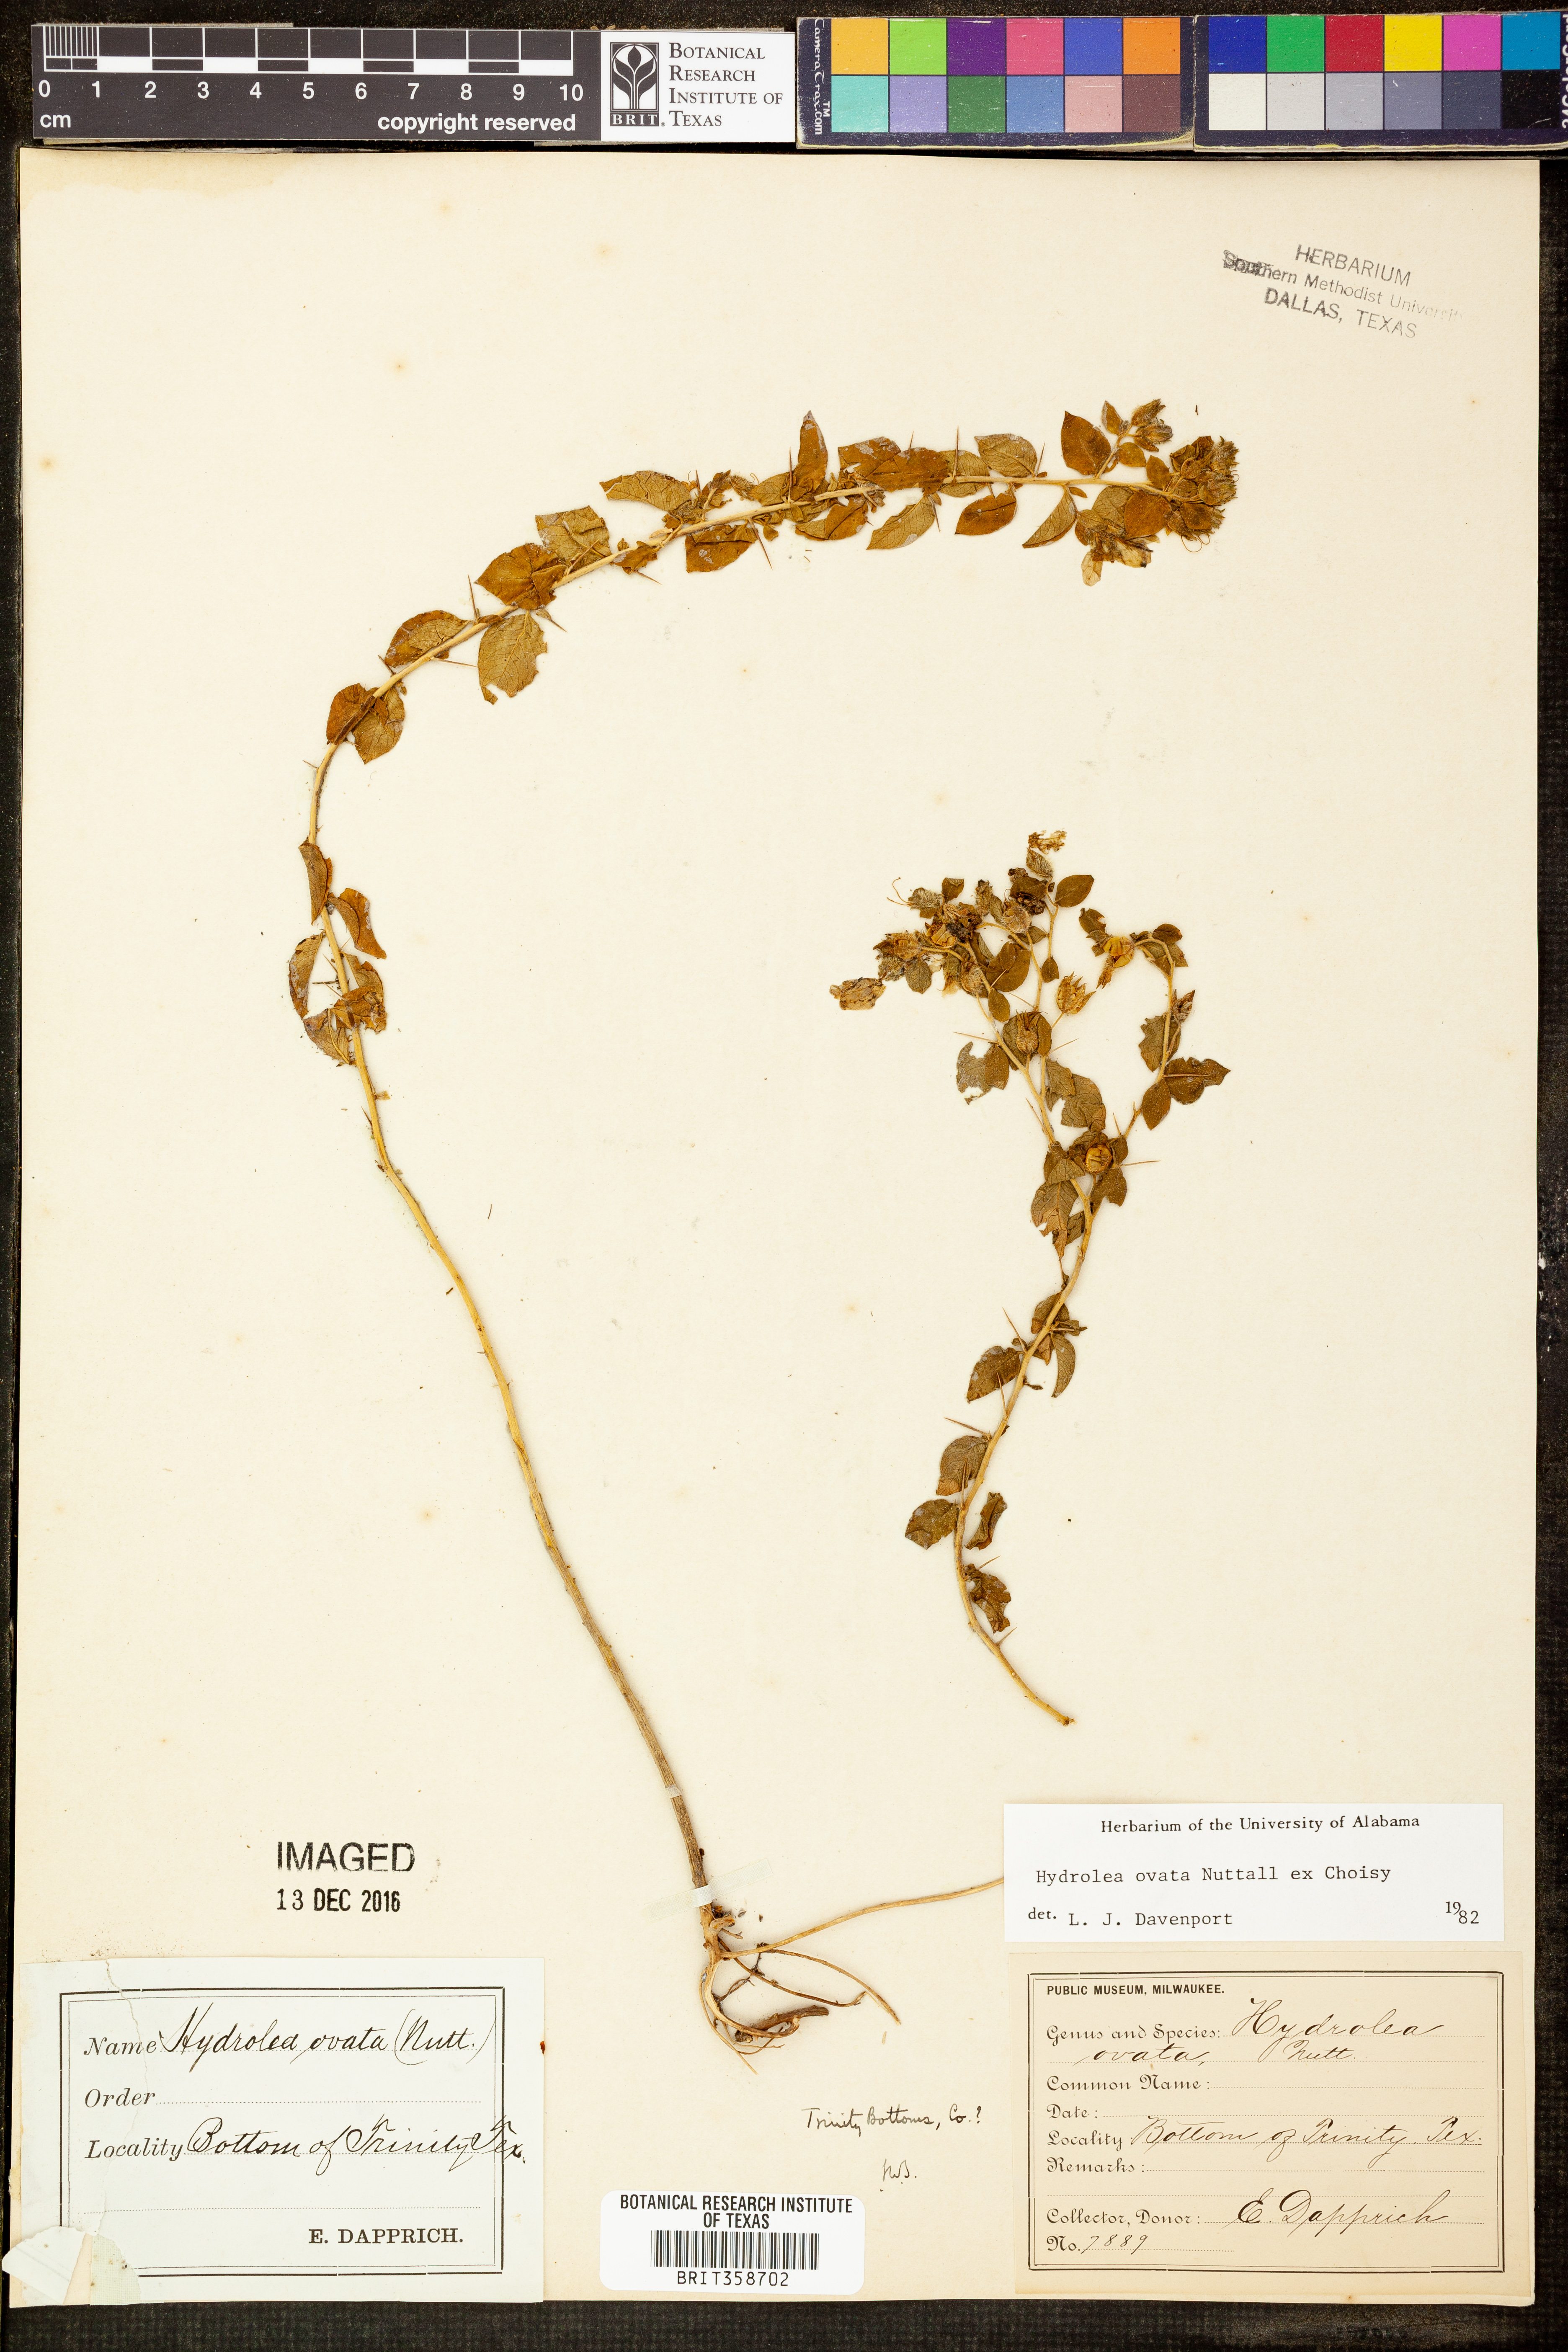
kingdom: Plantae
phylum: Tracheophyta
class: Magnoliopsida
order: Solanales
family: Hydroleaceae
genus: Hydrolea
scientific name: Hydrolea ovata
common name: Ovate false fiddleleaf
